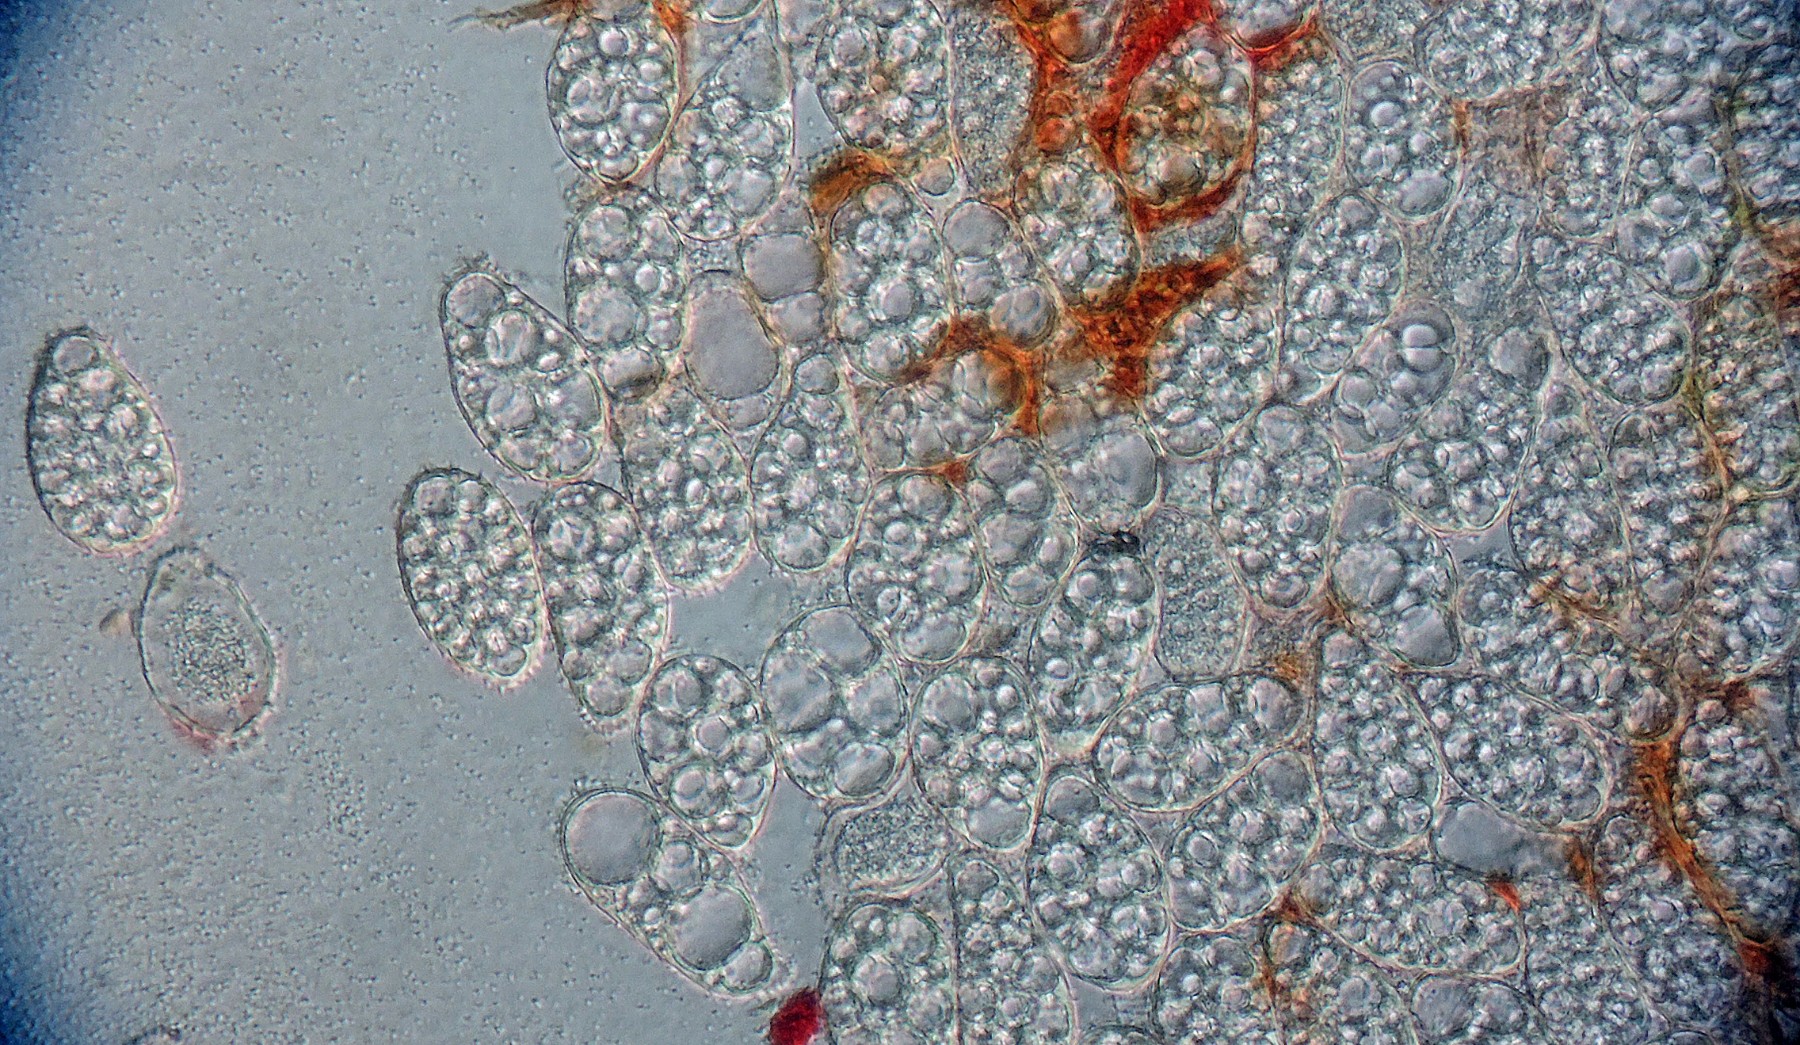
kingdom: Fungi
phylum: Basidiomycota
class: Pucciniomycetes
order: Pucciniales
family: Milesinaceae
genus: Milesina
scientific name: Milesina kriegeriana
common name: mangeløv-bregnerust
